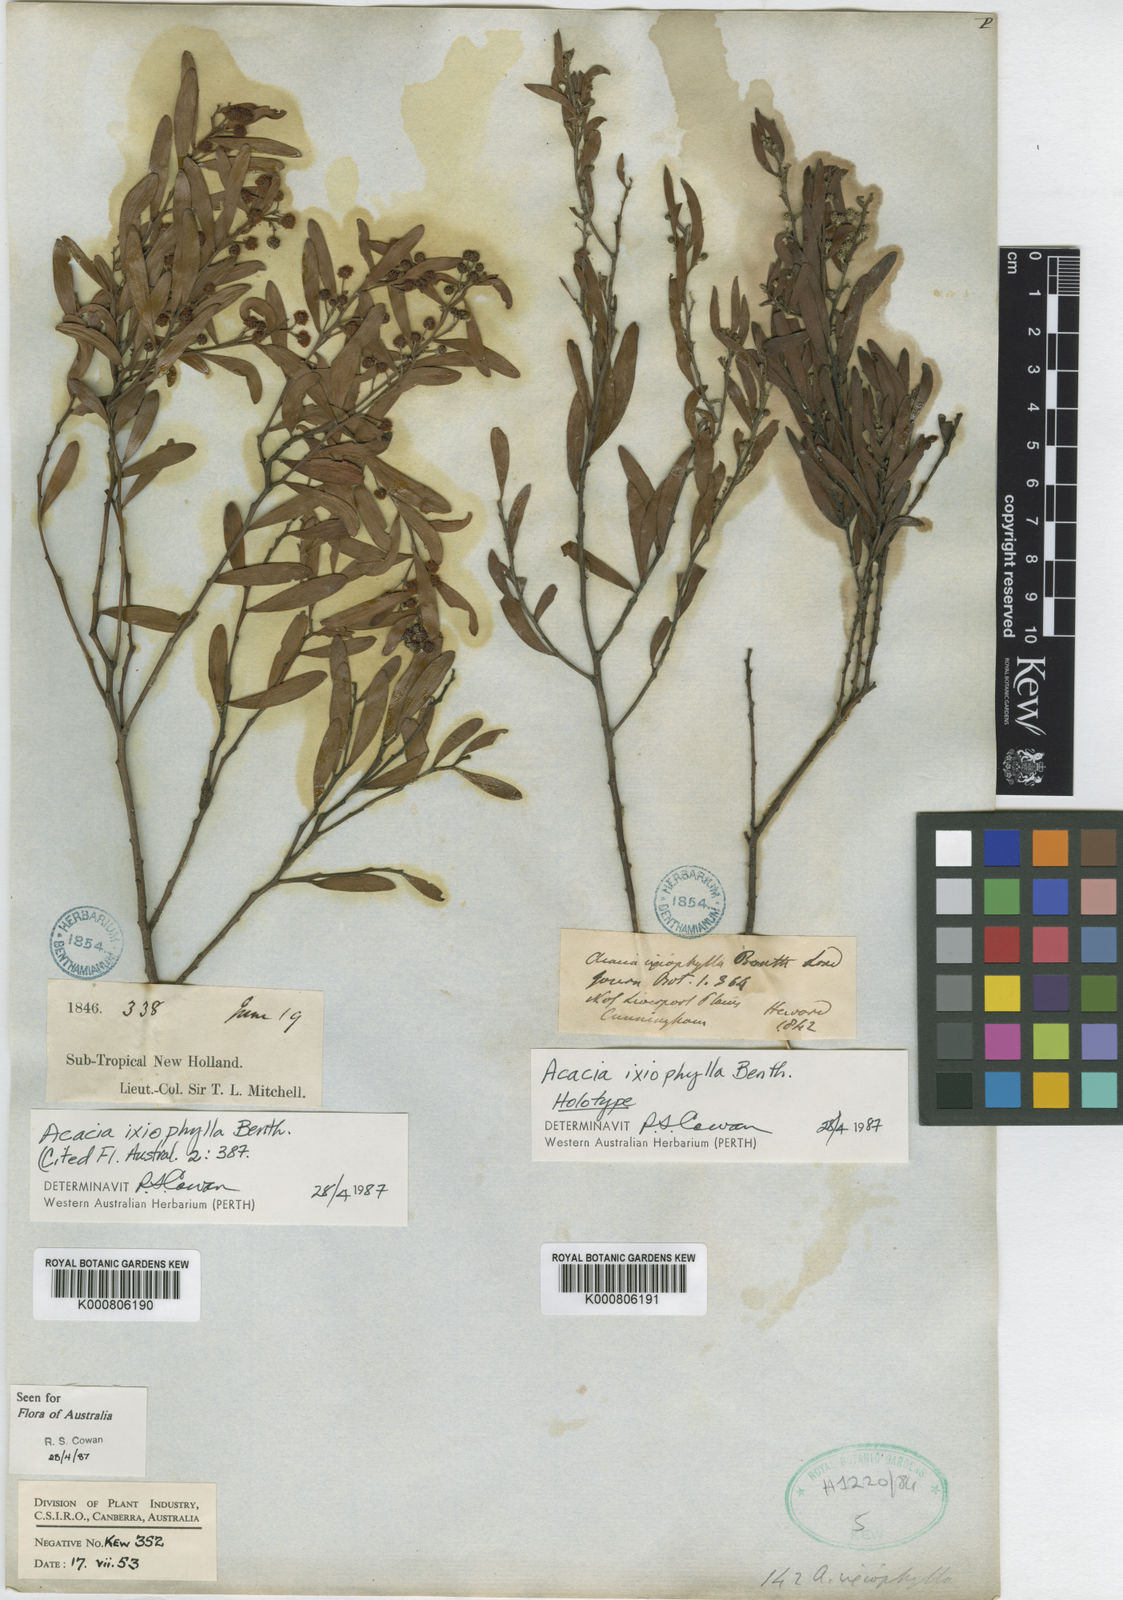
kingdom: Plantae
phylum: Tracheophyta
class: Magnoliopsida
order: Fabales
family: Fabaceae
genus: Acacia
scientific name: Acacia ixiophylla
